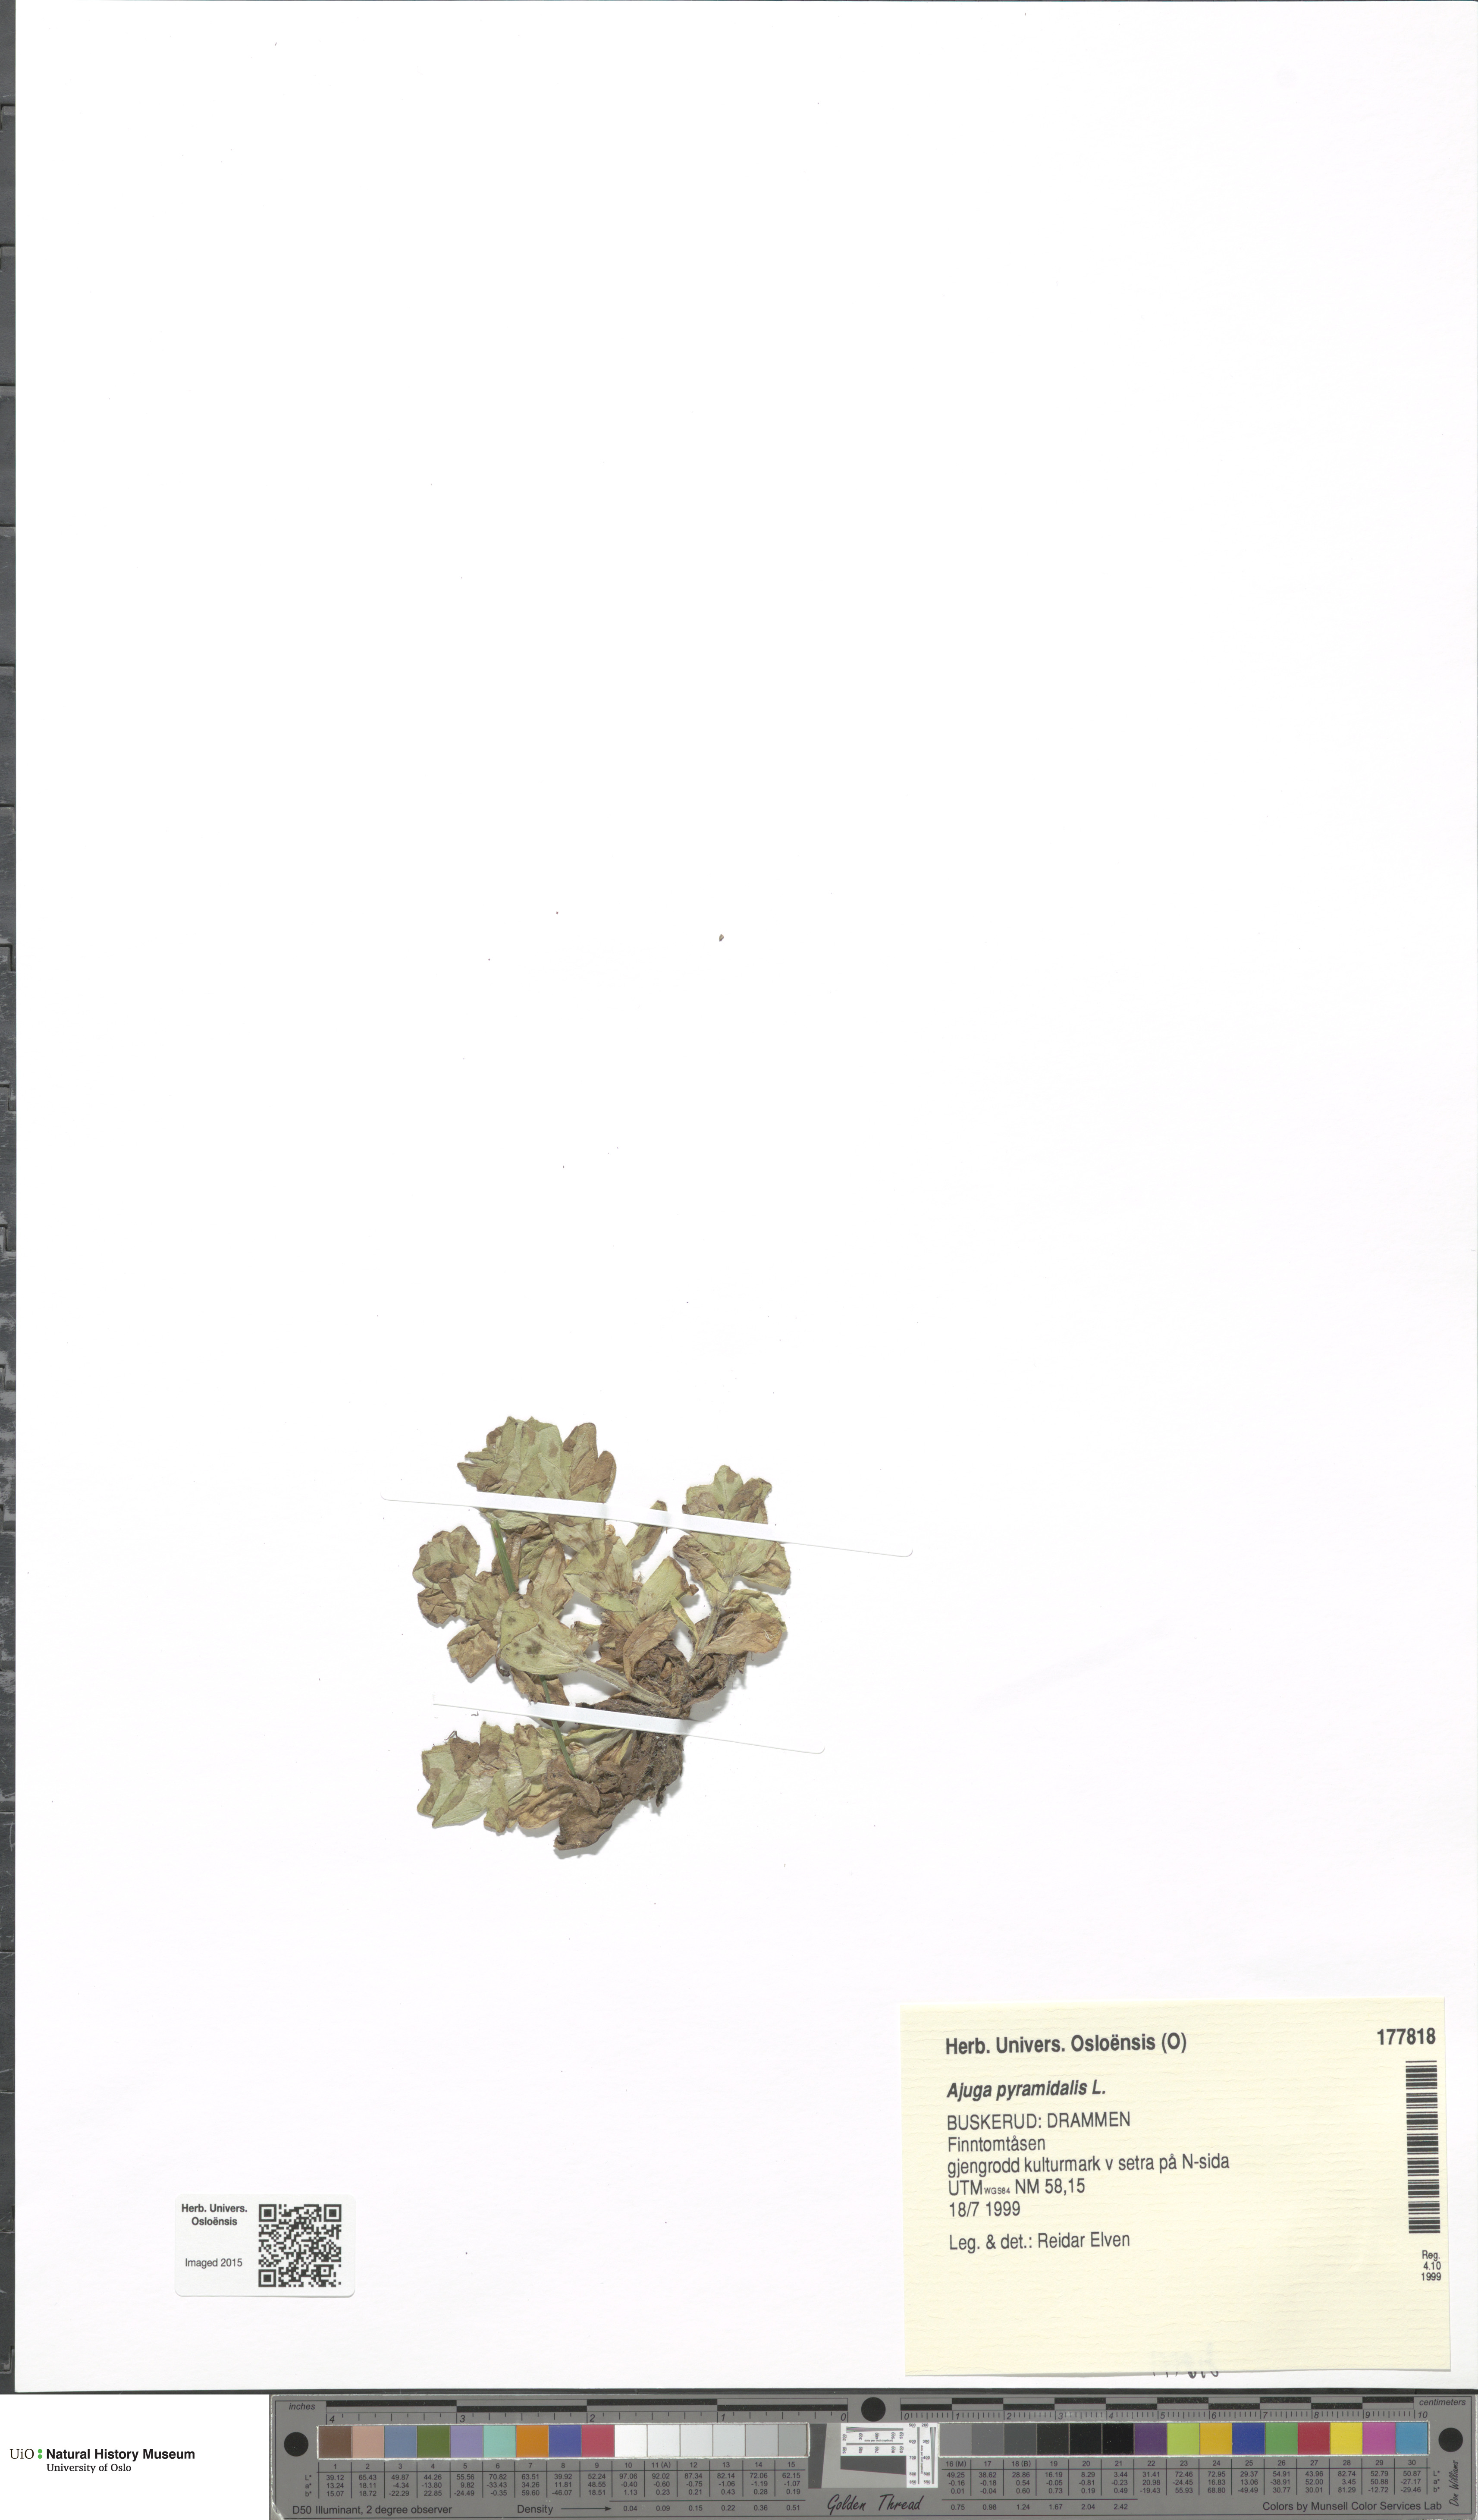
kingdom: Plantae
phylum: Tracheophyta
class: Magnoliopsida
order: Lamiales
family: Lamiaceae
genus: Ajuga
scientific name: Ajuga pyramidalis
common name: Pyramid bugle
